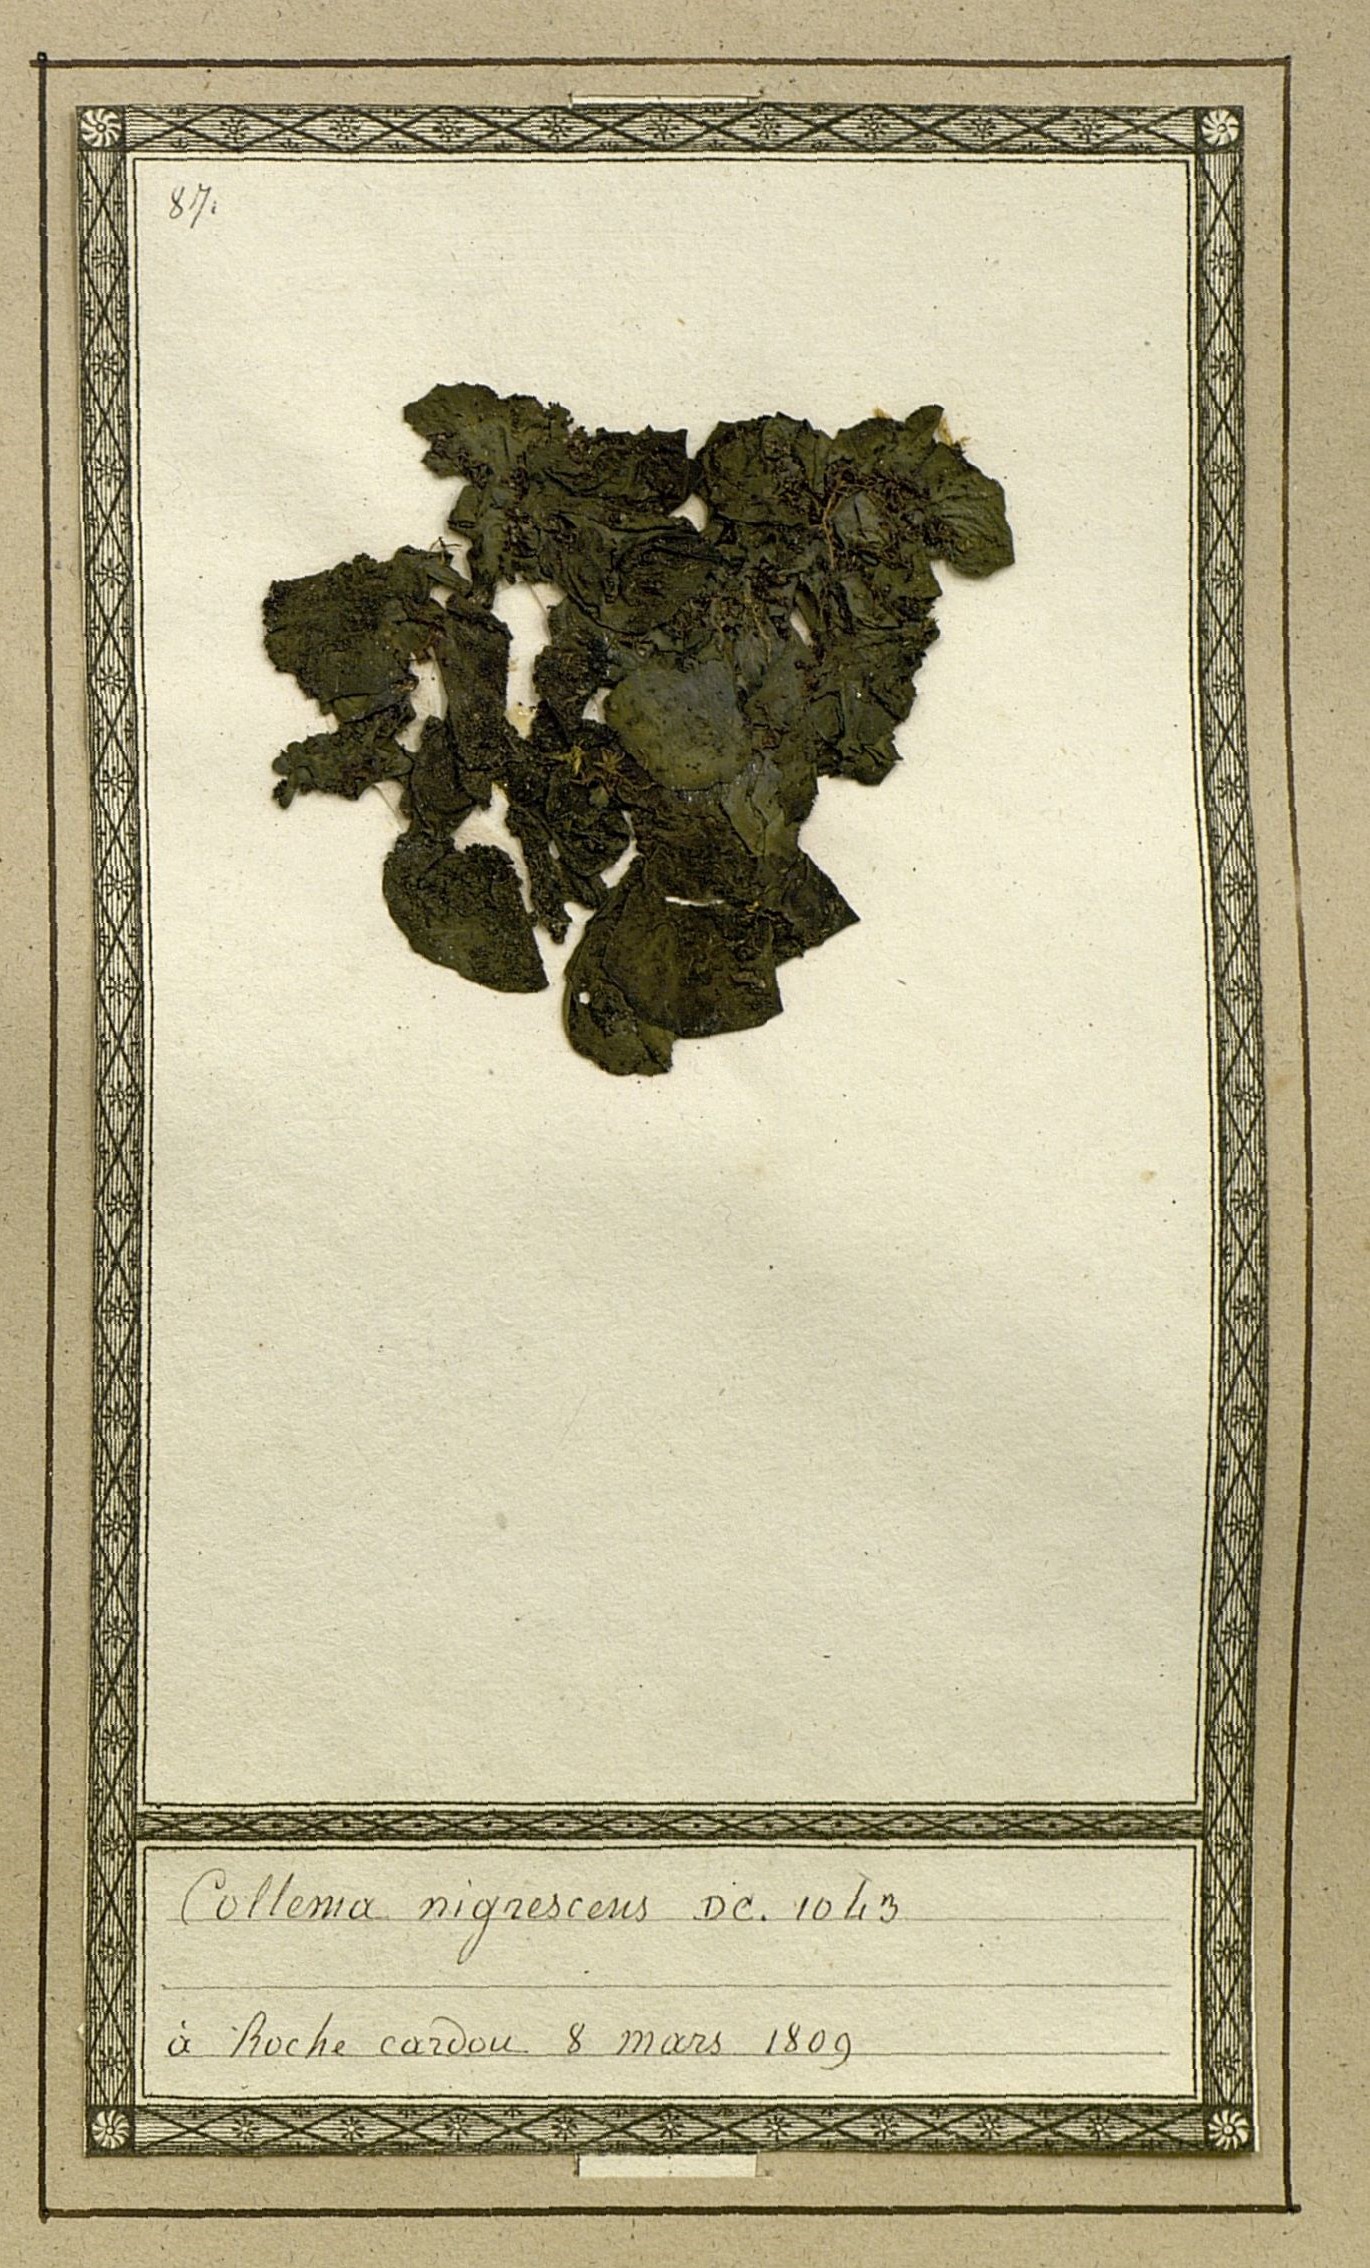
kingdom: Bacteria
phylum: Cyanobacteria
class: Cyanobacteriia
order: Cyanobacteriales
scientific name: Cyanobacteriales
